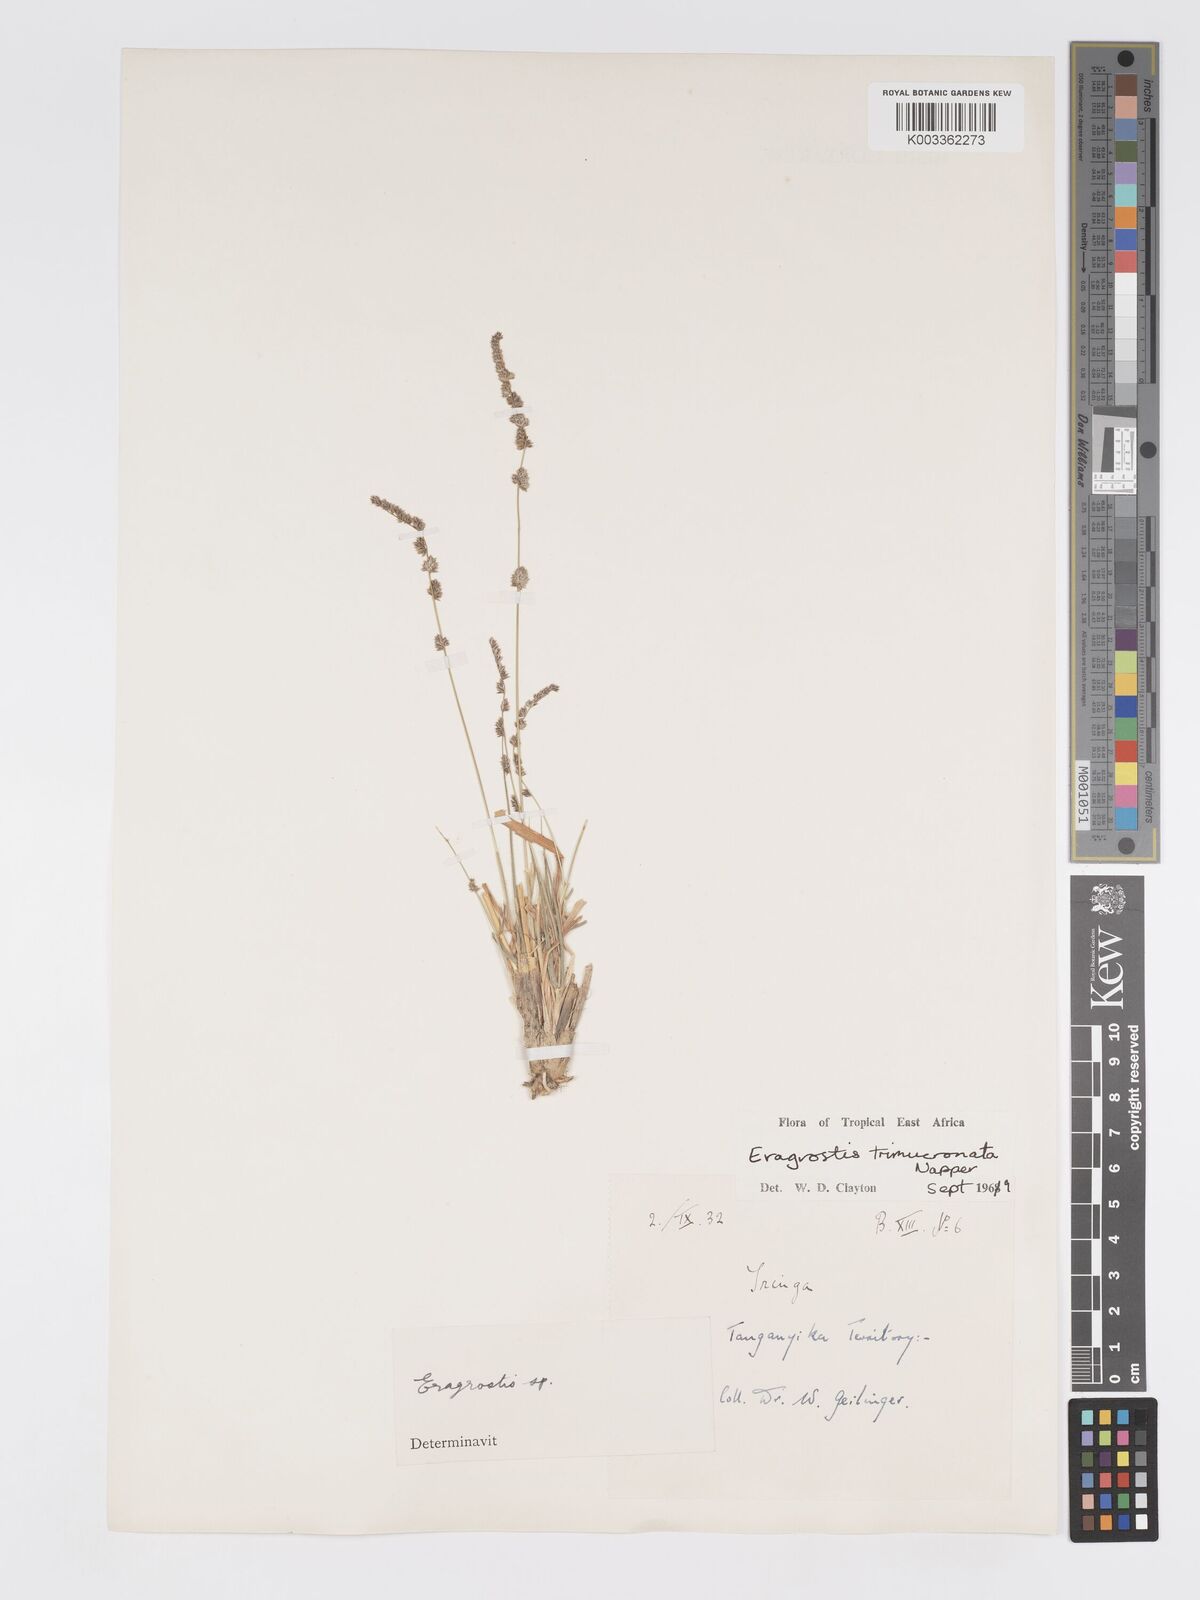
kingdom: Plantae
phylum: Tracheophyta
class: Liliopsida
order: Poales
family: Poaceae
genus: Eragrostis
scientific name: Eragrostis castellaneana
